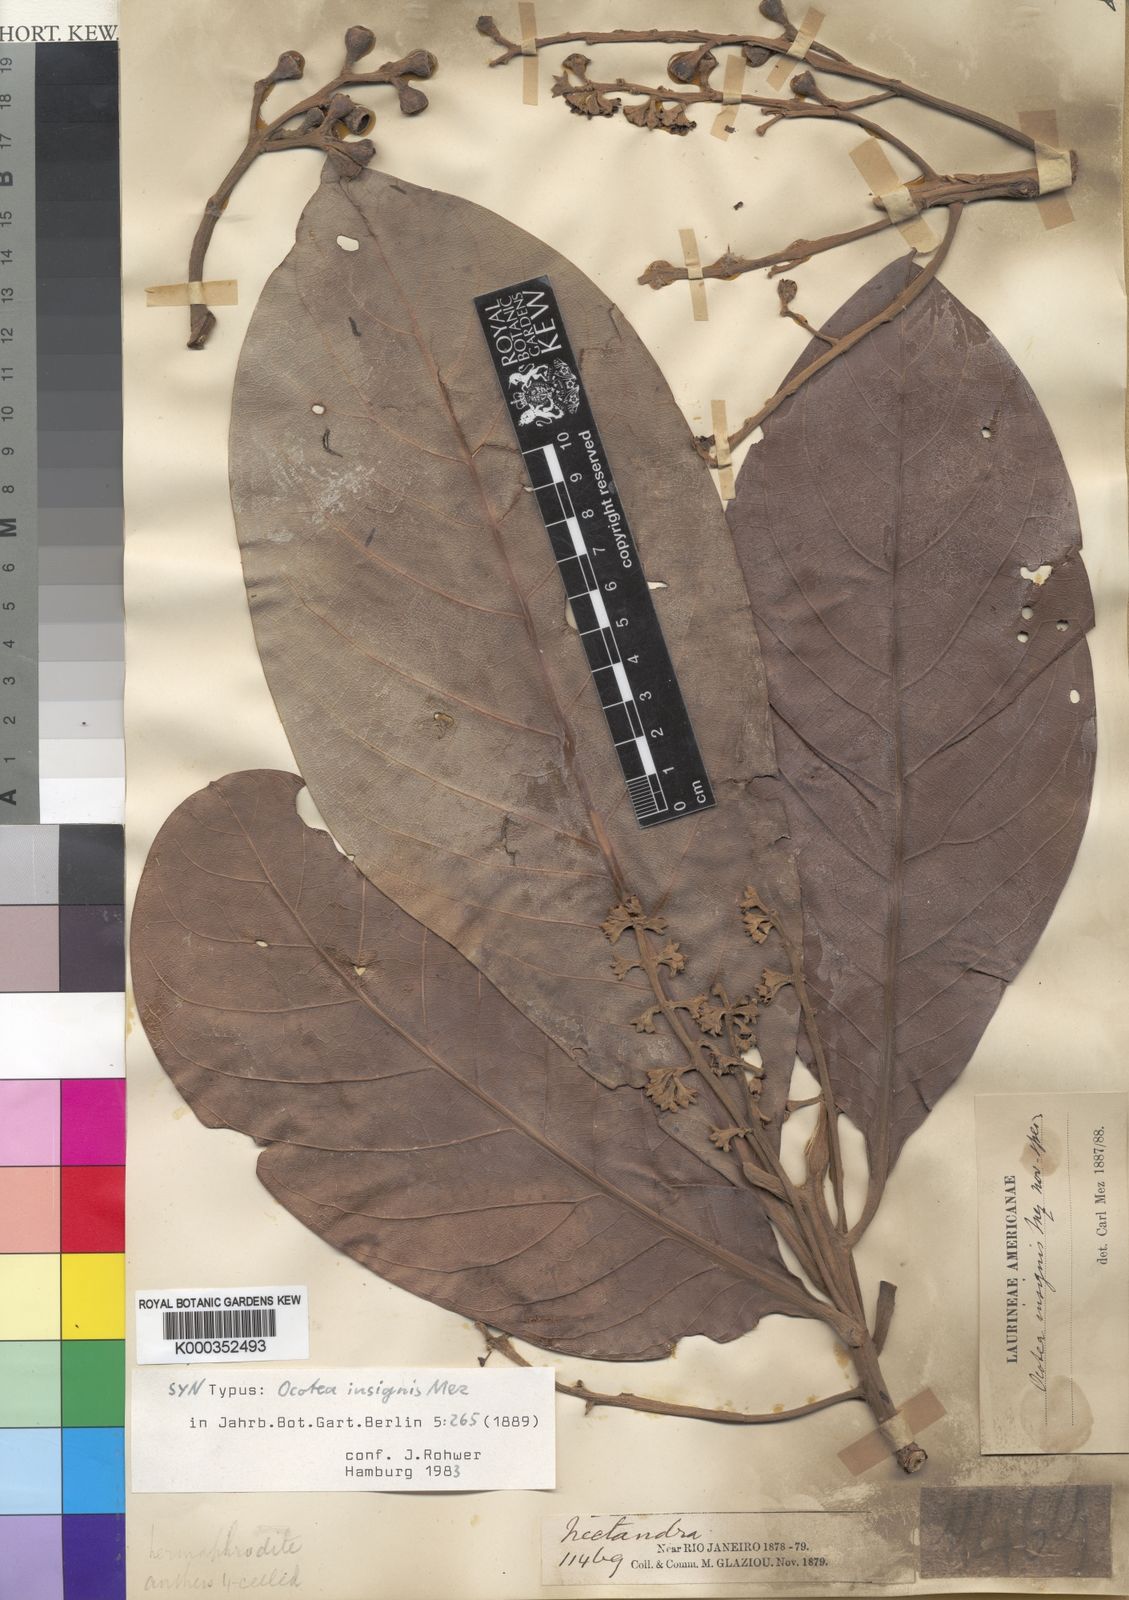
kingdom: Plantae
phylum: Tracheophyta
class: Magnoliopsida
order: Laurales
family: Lauraceae
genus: Ocotea
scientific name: Ocotea insignis
